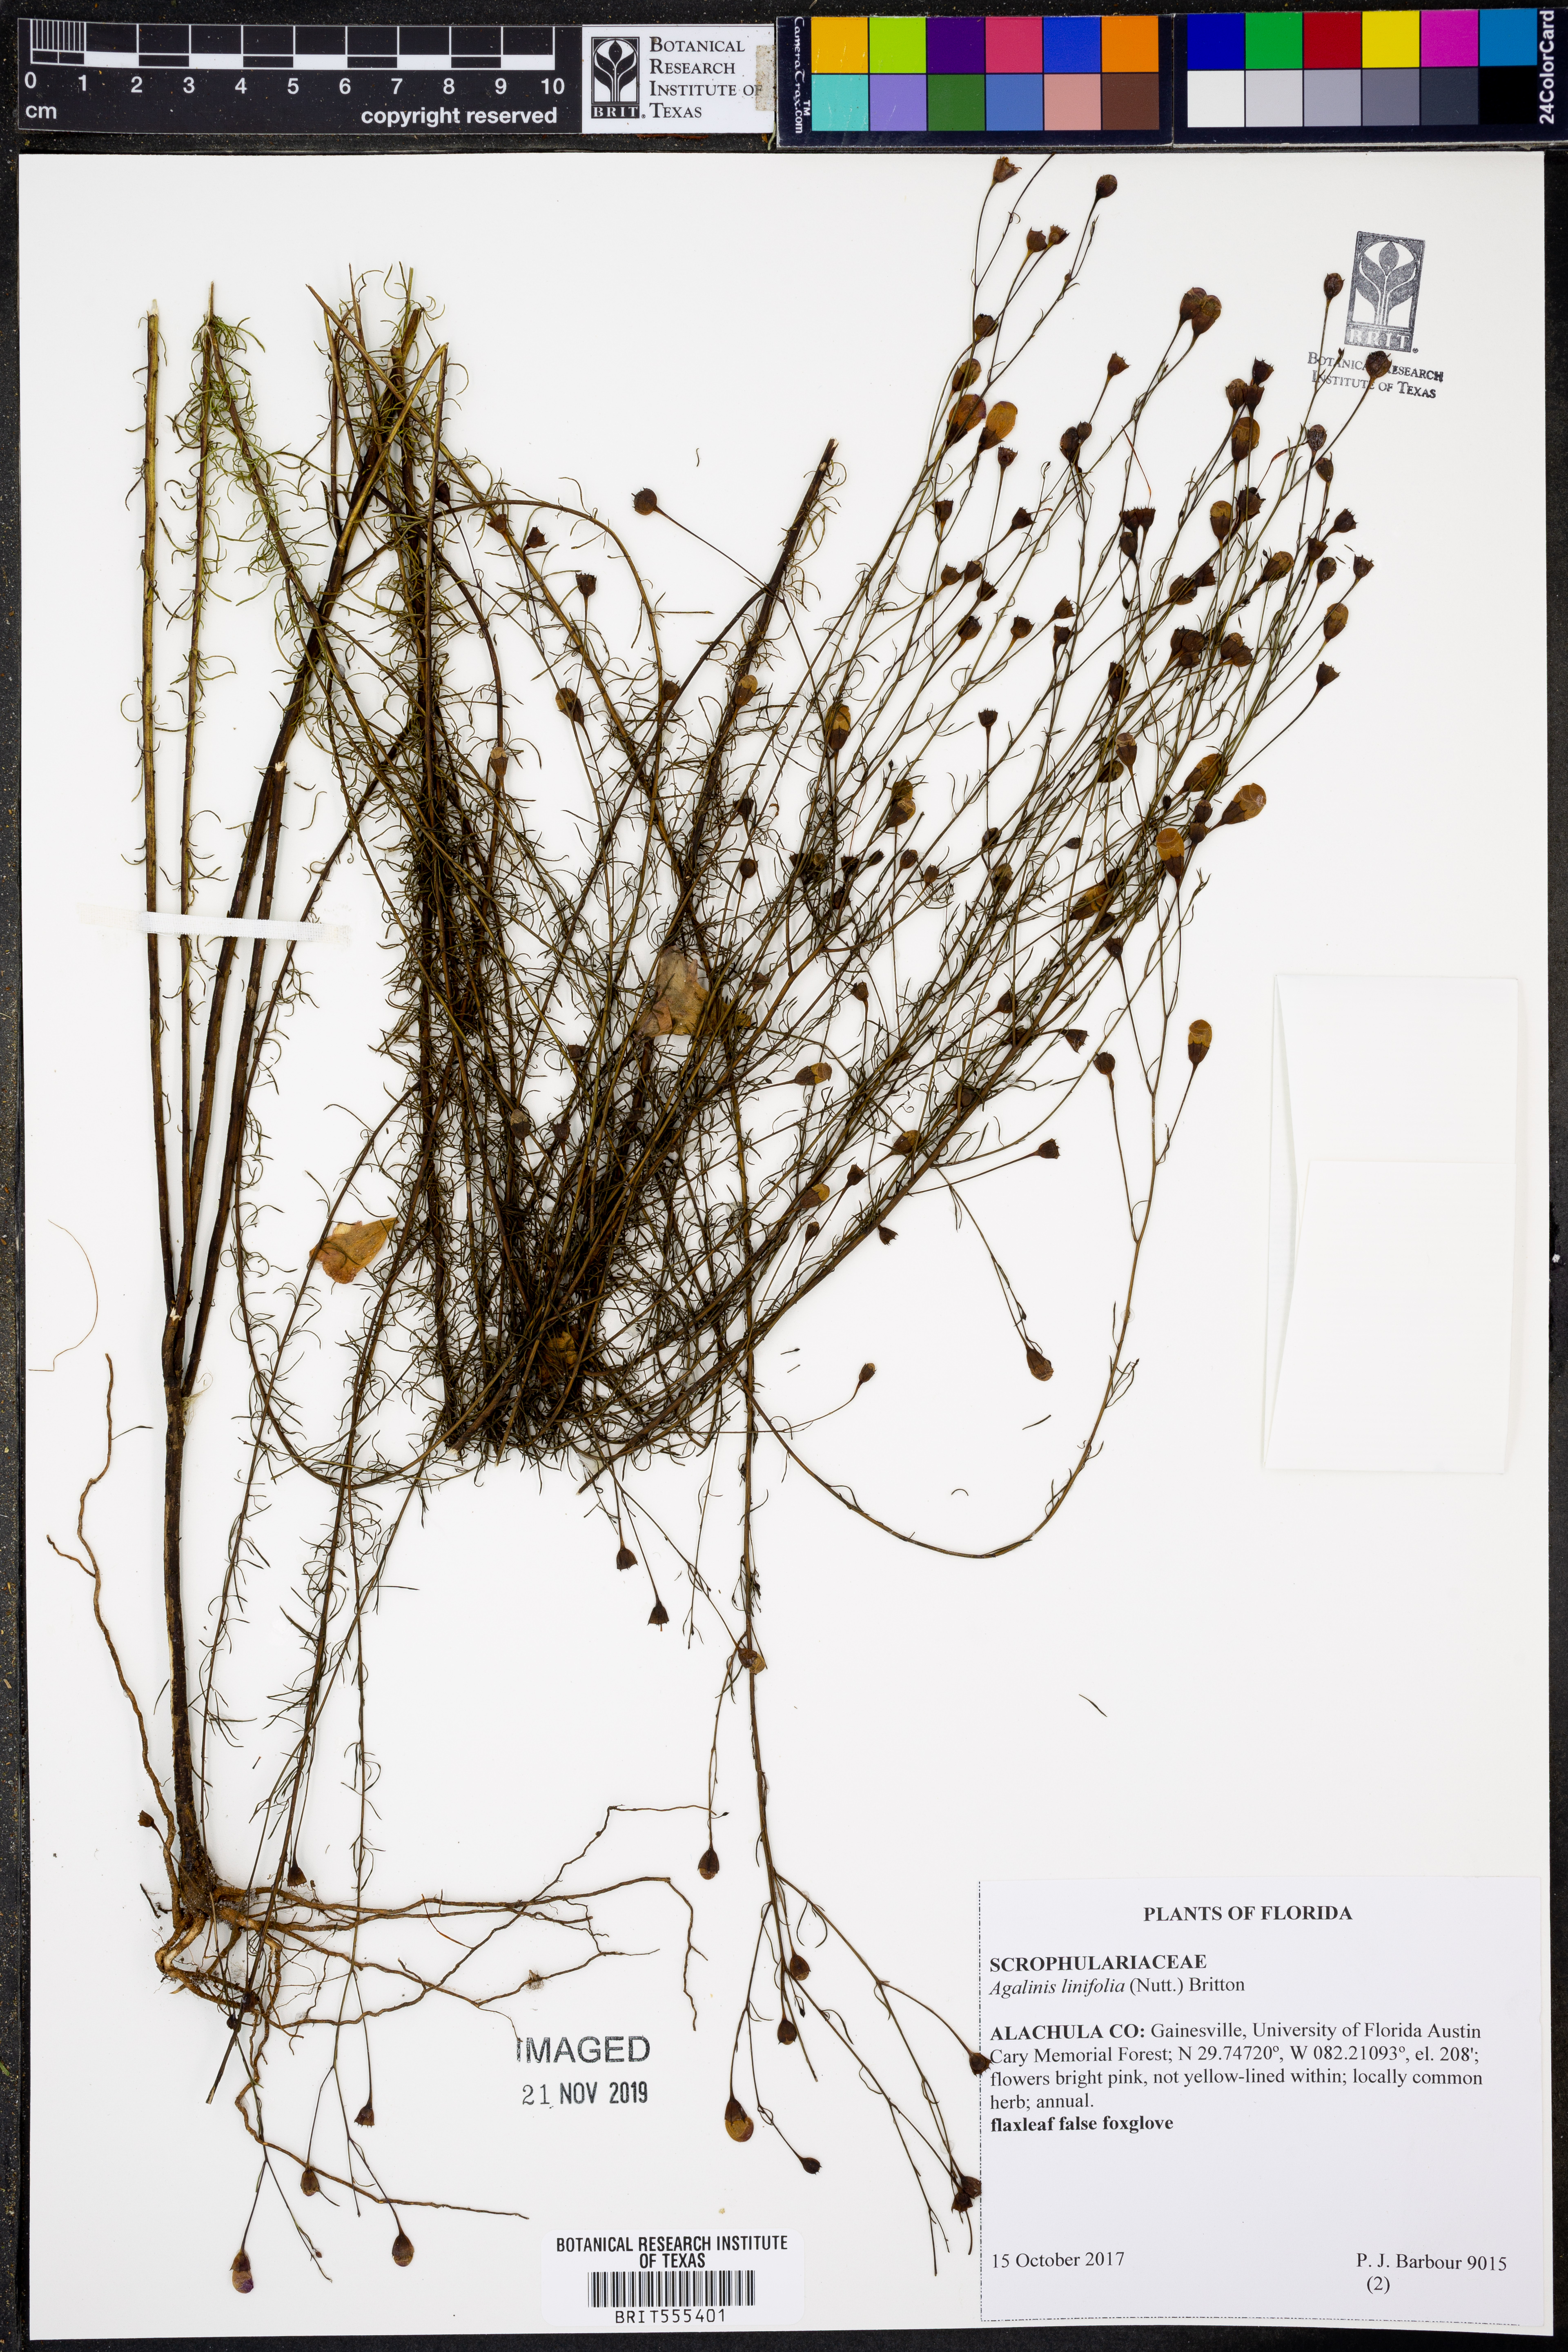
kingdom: Plantae
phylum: Tracheophyta
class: Magnoliopsida
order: Lamiales
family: Orobanchaceae
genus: Agalinis
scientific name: Agalinis linifolia
